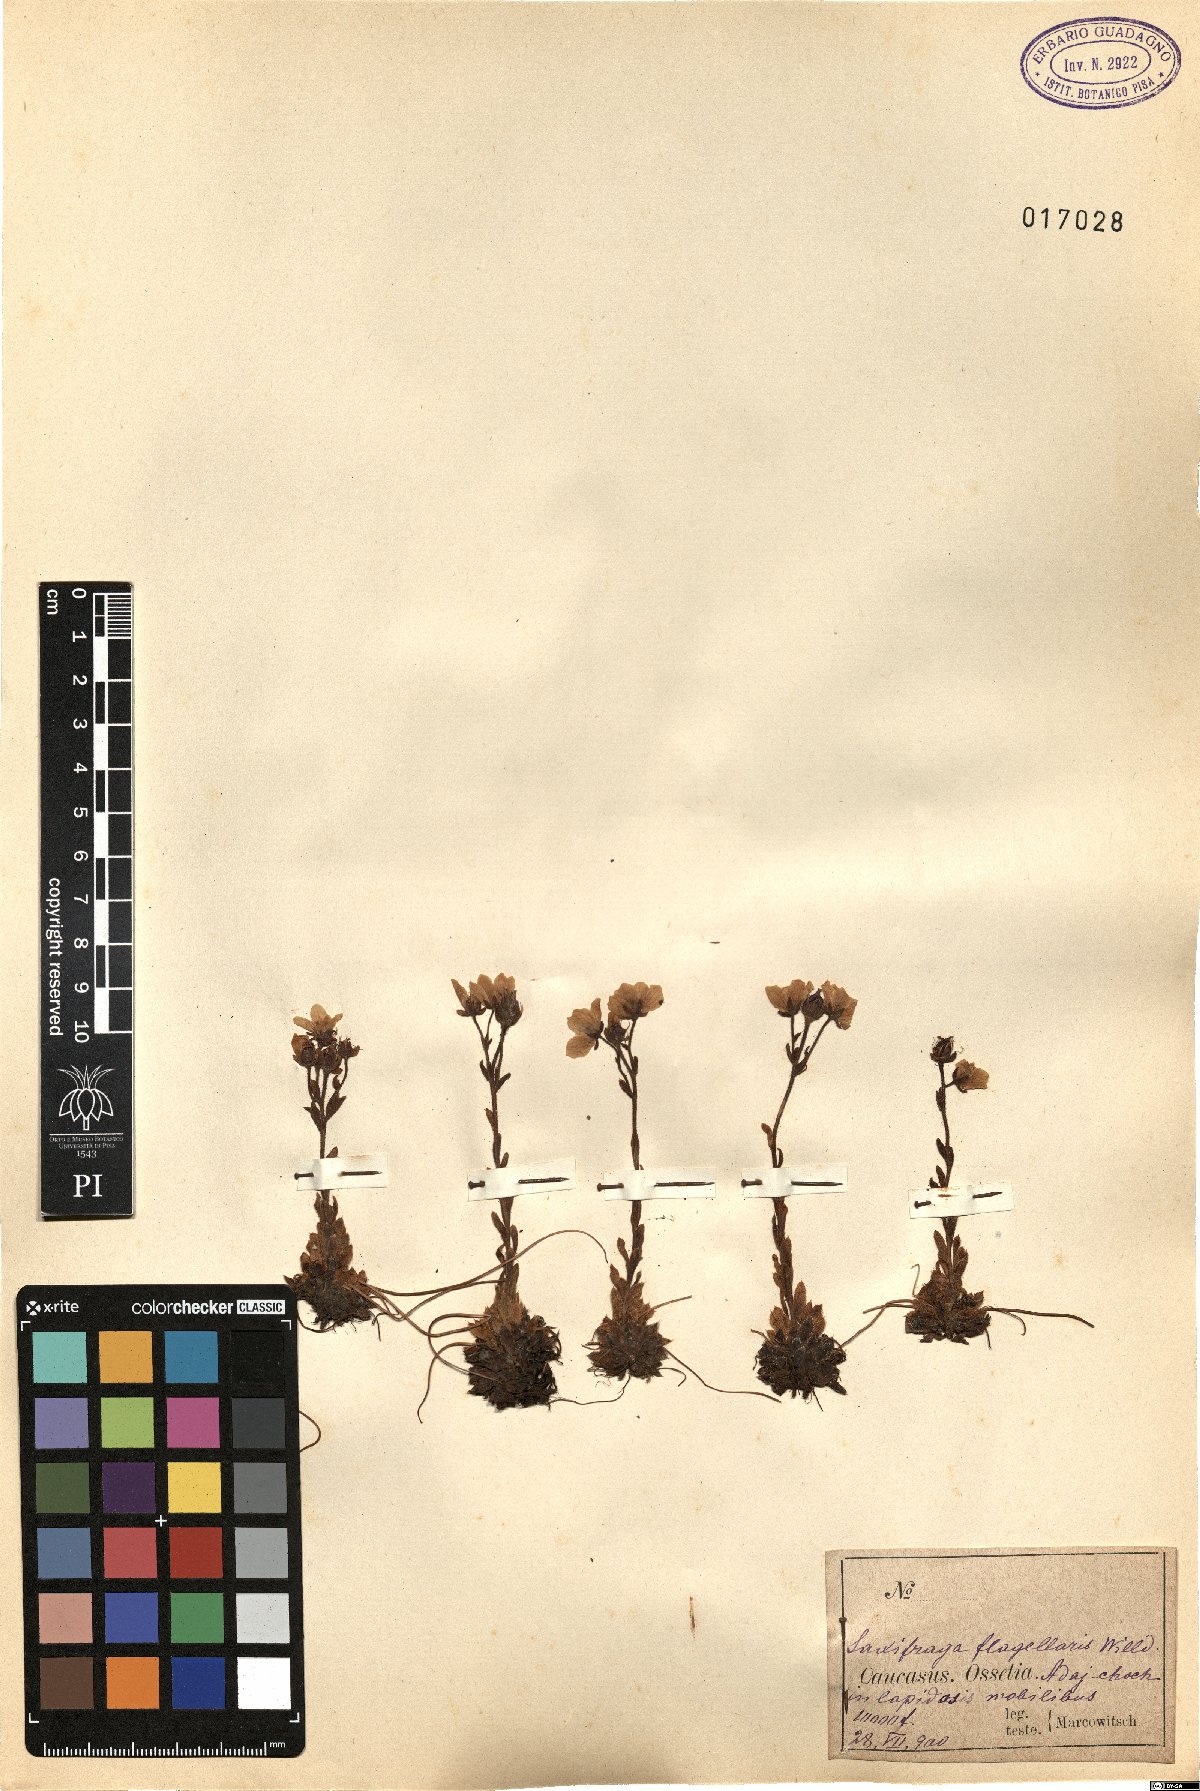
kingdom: Plantae
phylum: Tracheophyta
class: Magnoliopsida
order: Saxifragales
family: Saxifragaceae
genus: Saxifraga
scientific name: Saxifraga flagellaris
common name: Spider saxifrage
